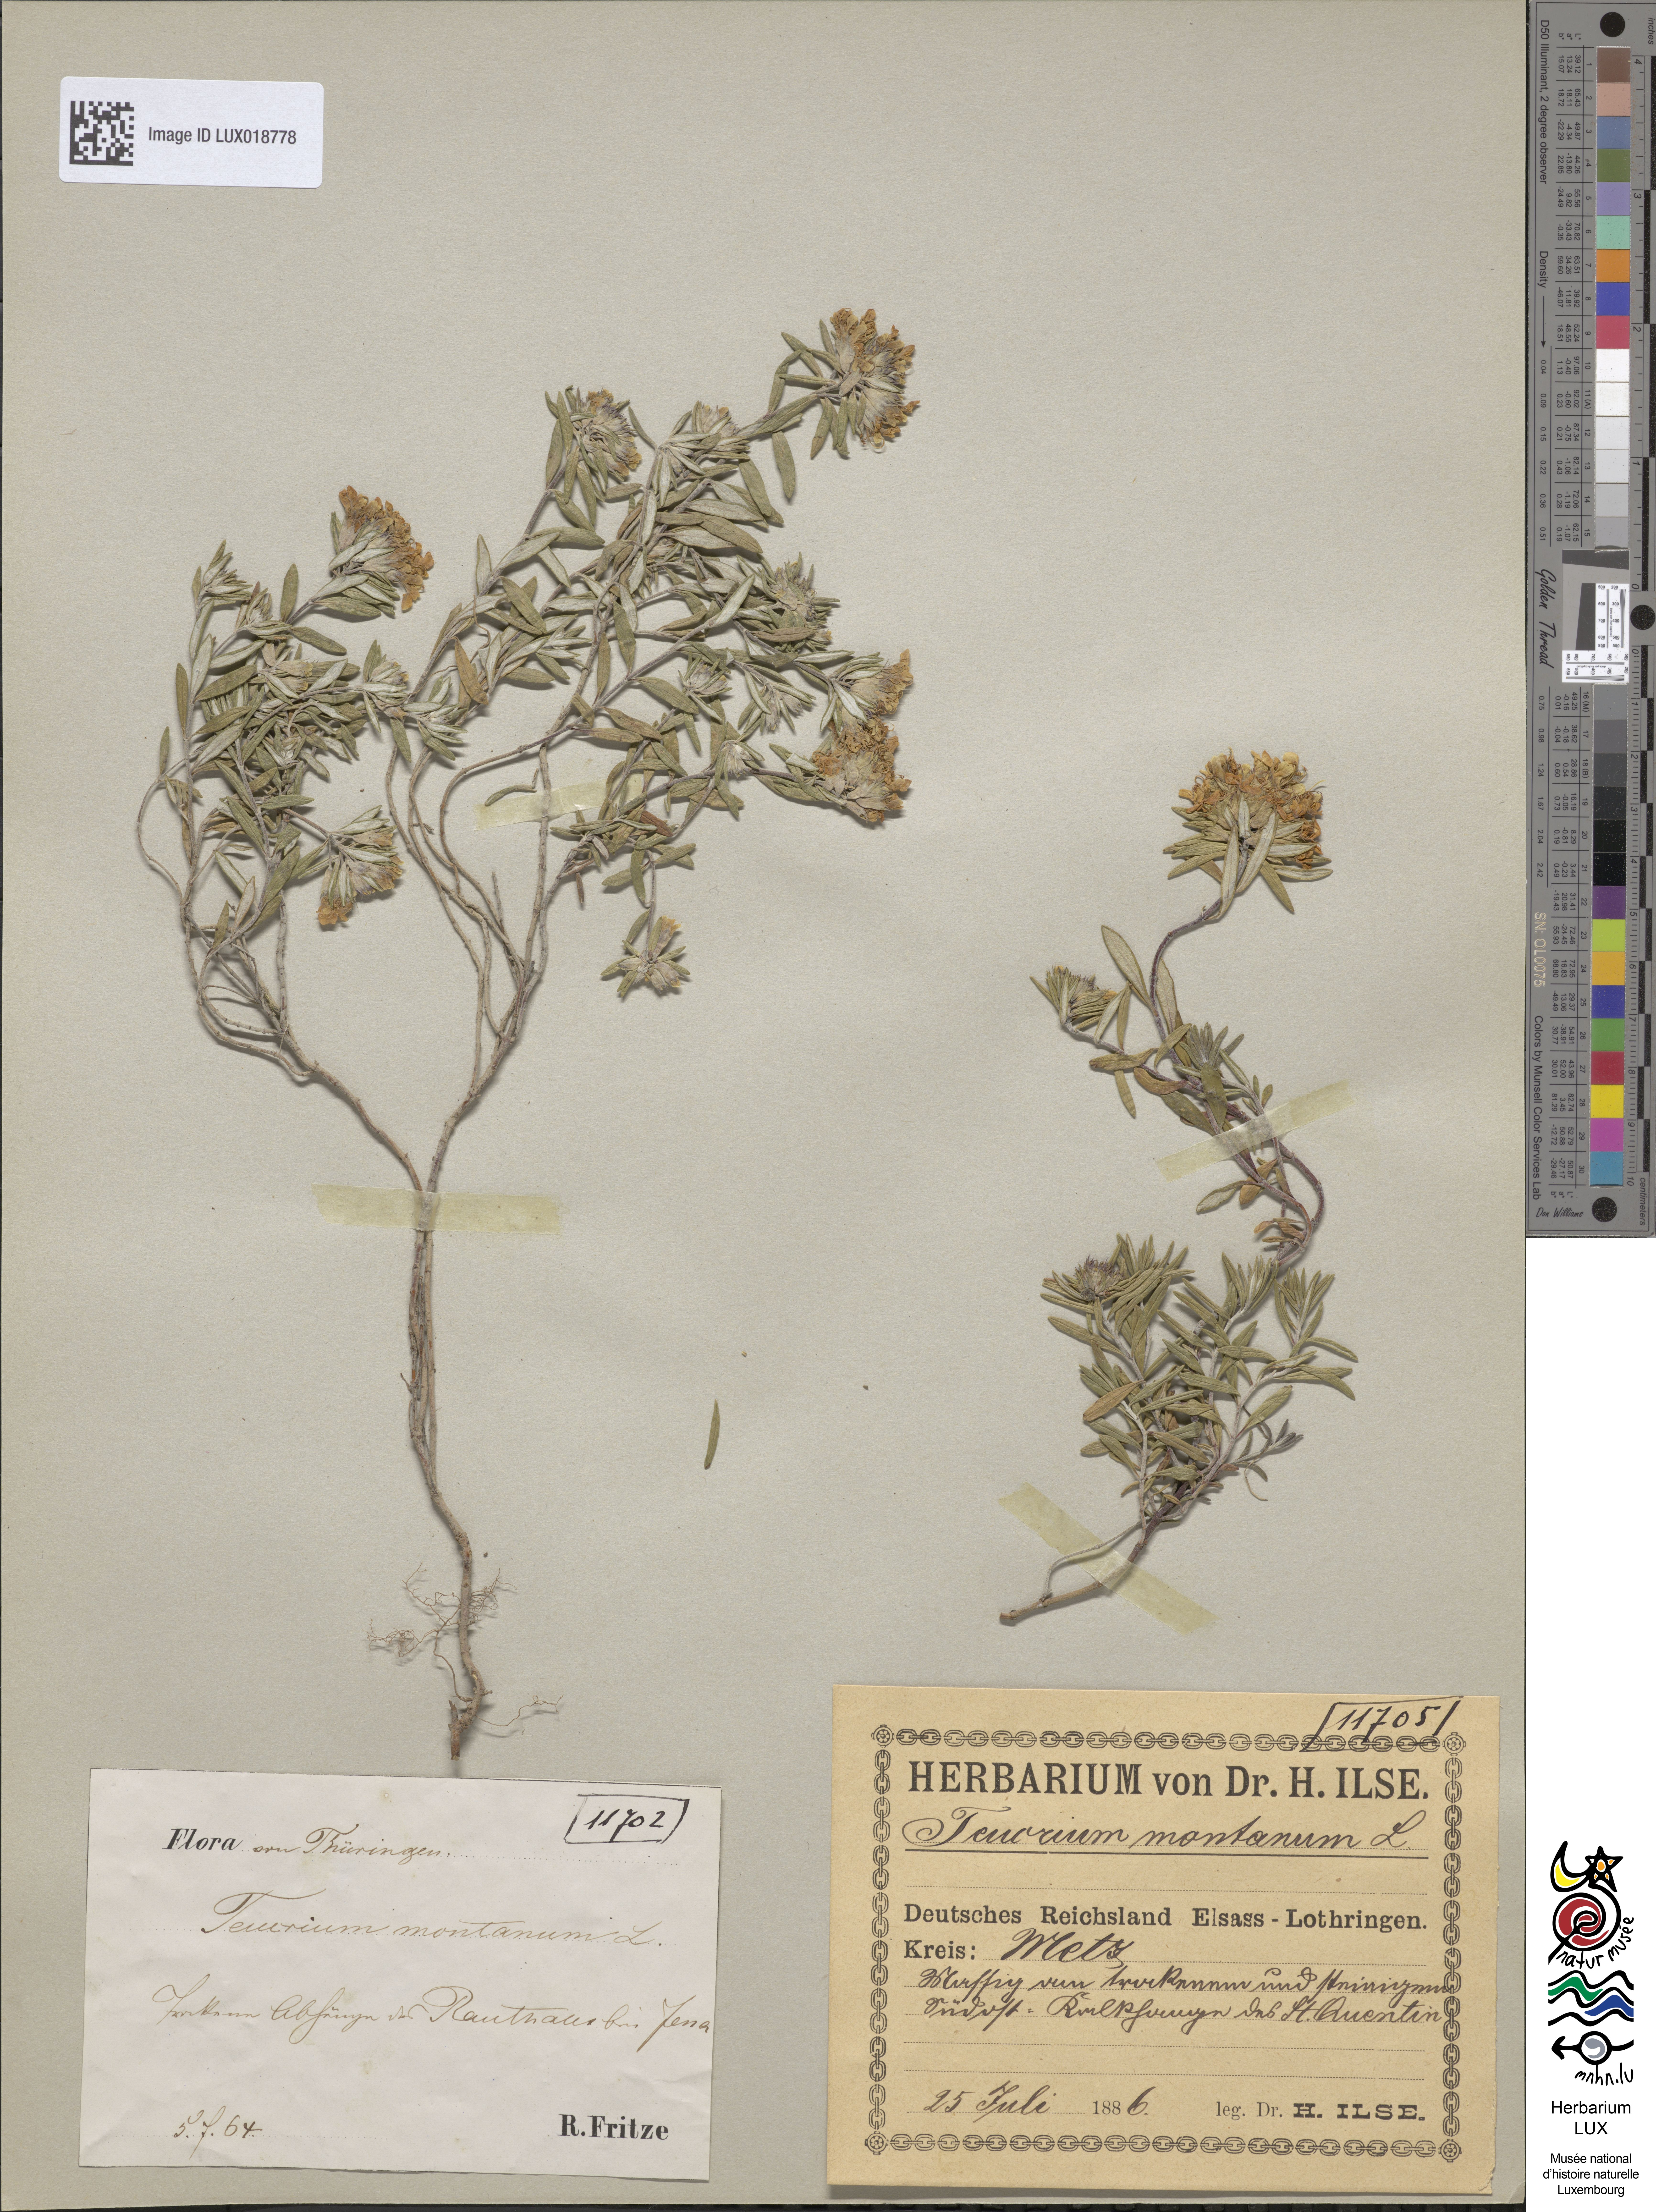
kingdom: Plantae
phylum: Tracheophyta
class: Magnoliopsida
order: Lamiales
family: Lamiaceae
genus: Teucrium
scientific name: Teucrium montanum
